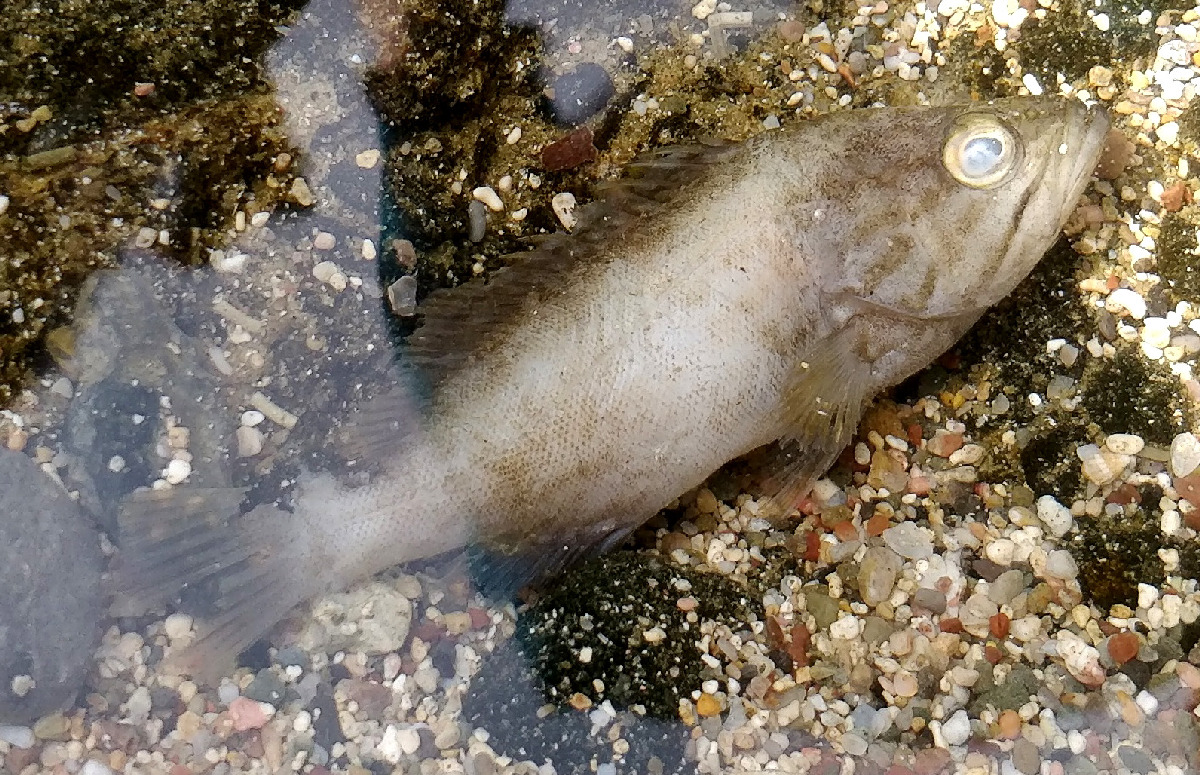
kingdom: Animalia
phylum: Chordata
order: Perciformes
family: Serranidae
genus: Epinephelus
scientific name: Epinephelus costae
